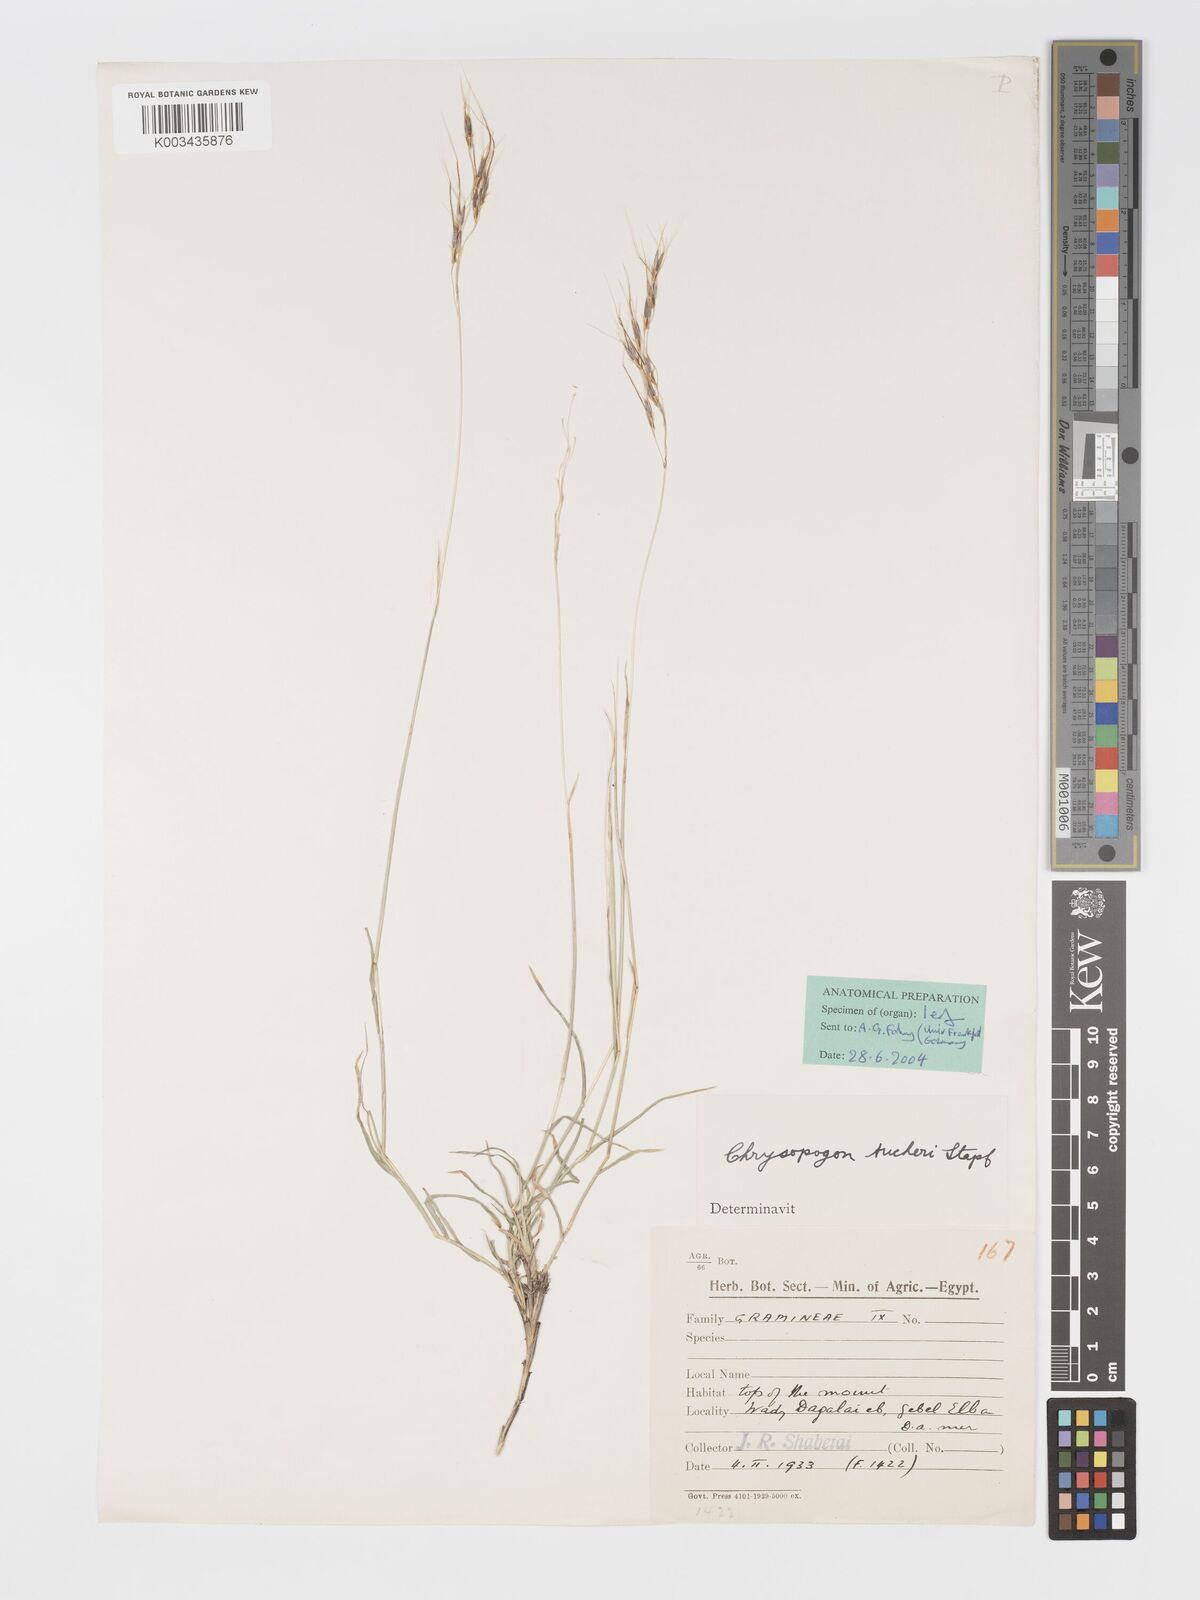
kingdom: Plantae
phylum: Tracheophyta
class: Liliopsida
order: Poales
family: Poaceae
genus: Chrysopogon
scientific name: Chrysopogon plumulosus
